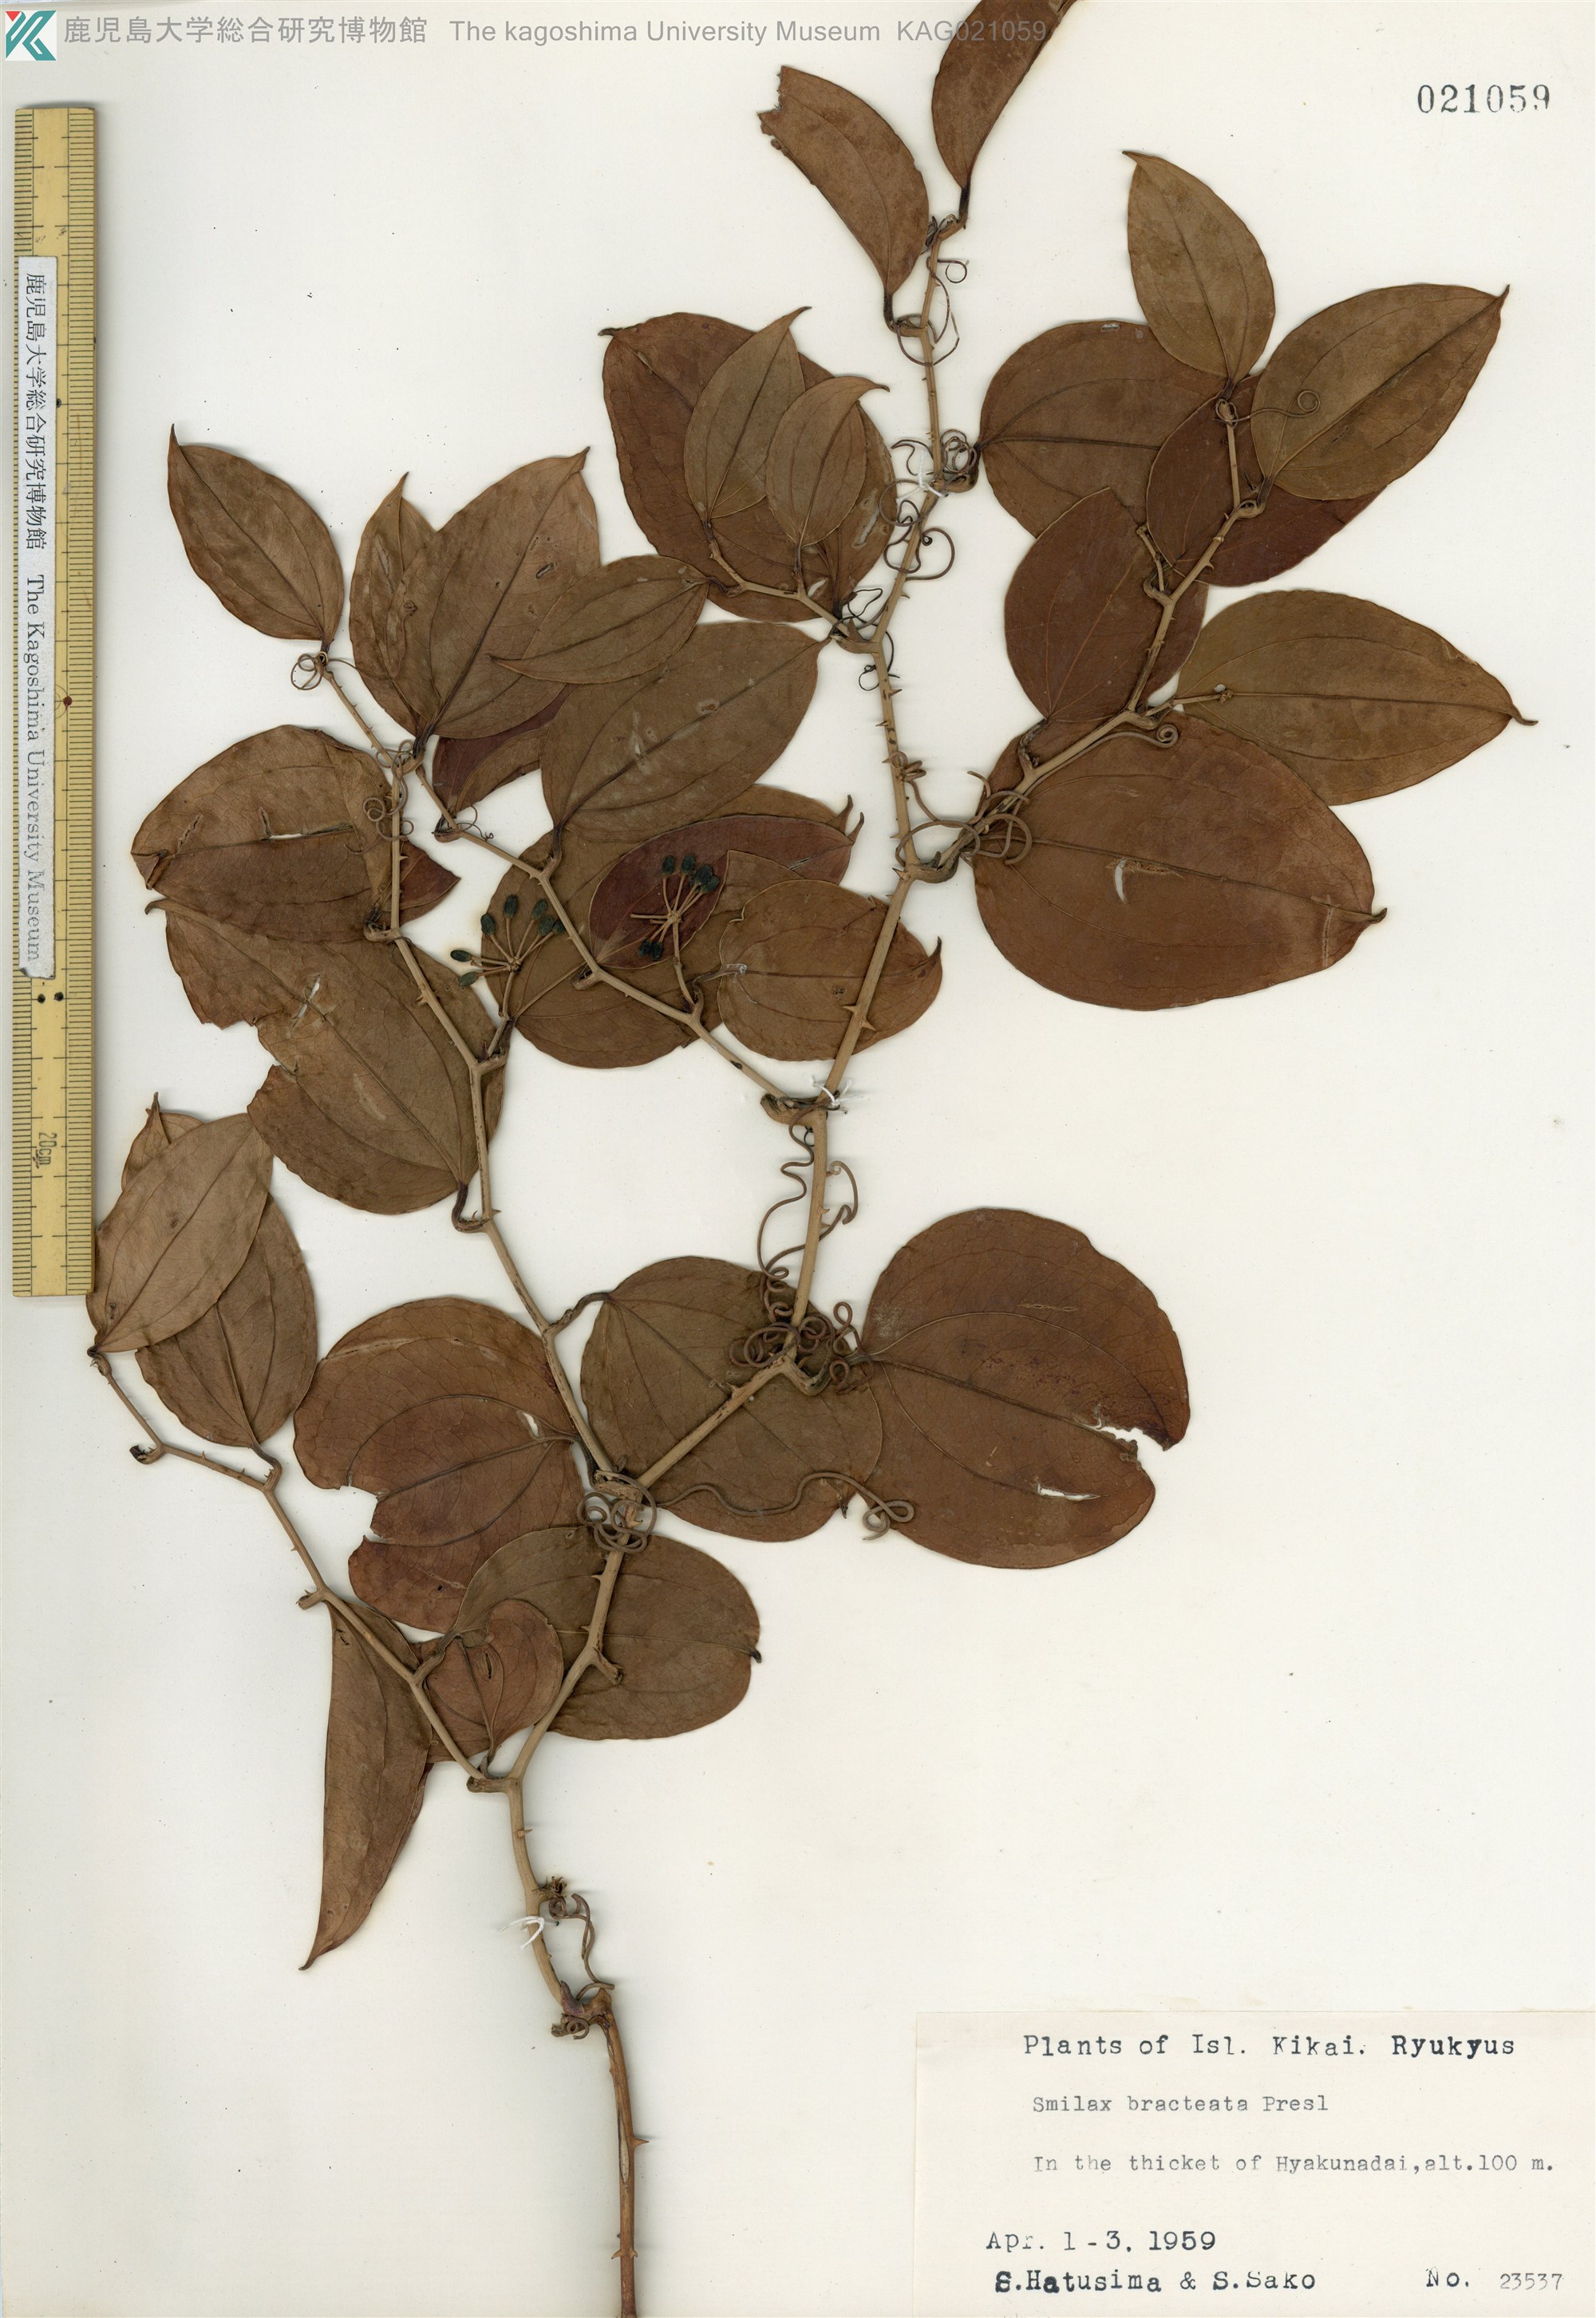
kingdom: Plantae
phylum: Tracheophyta
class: Liliopsida
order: Liliales
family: Smilacaceae
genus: Smilax
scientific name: Smilax bracteata
